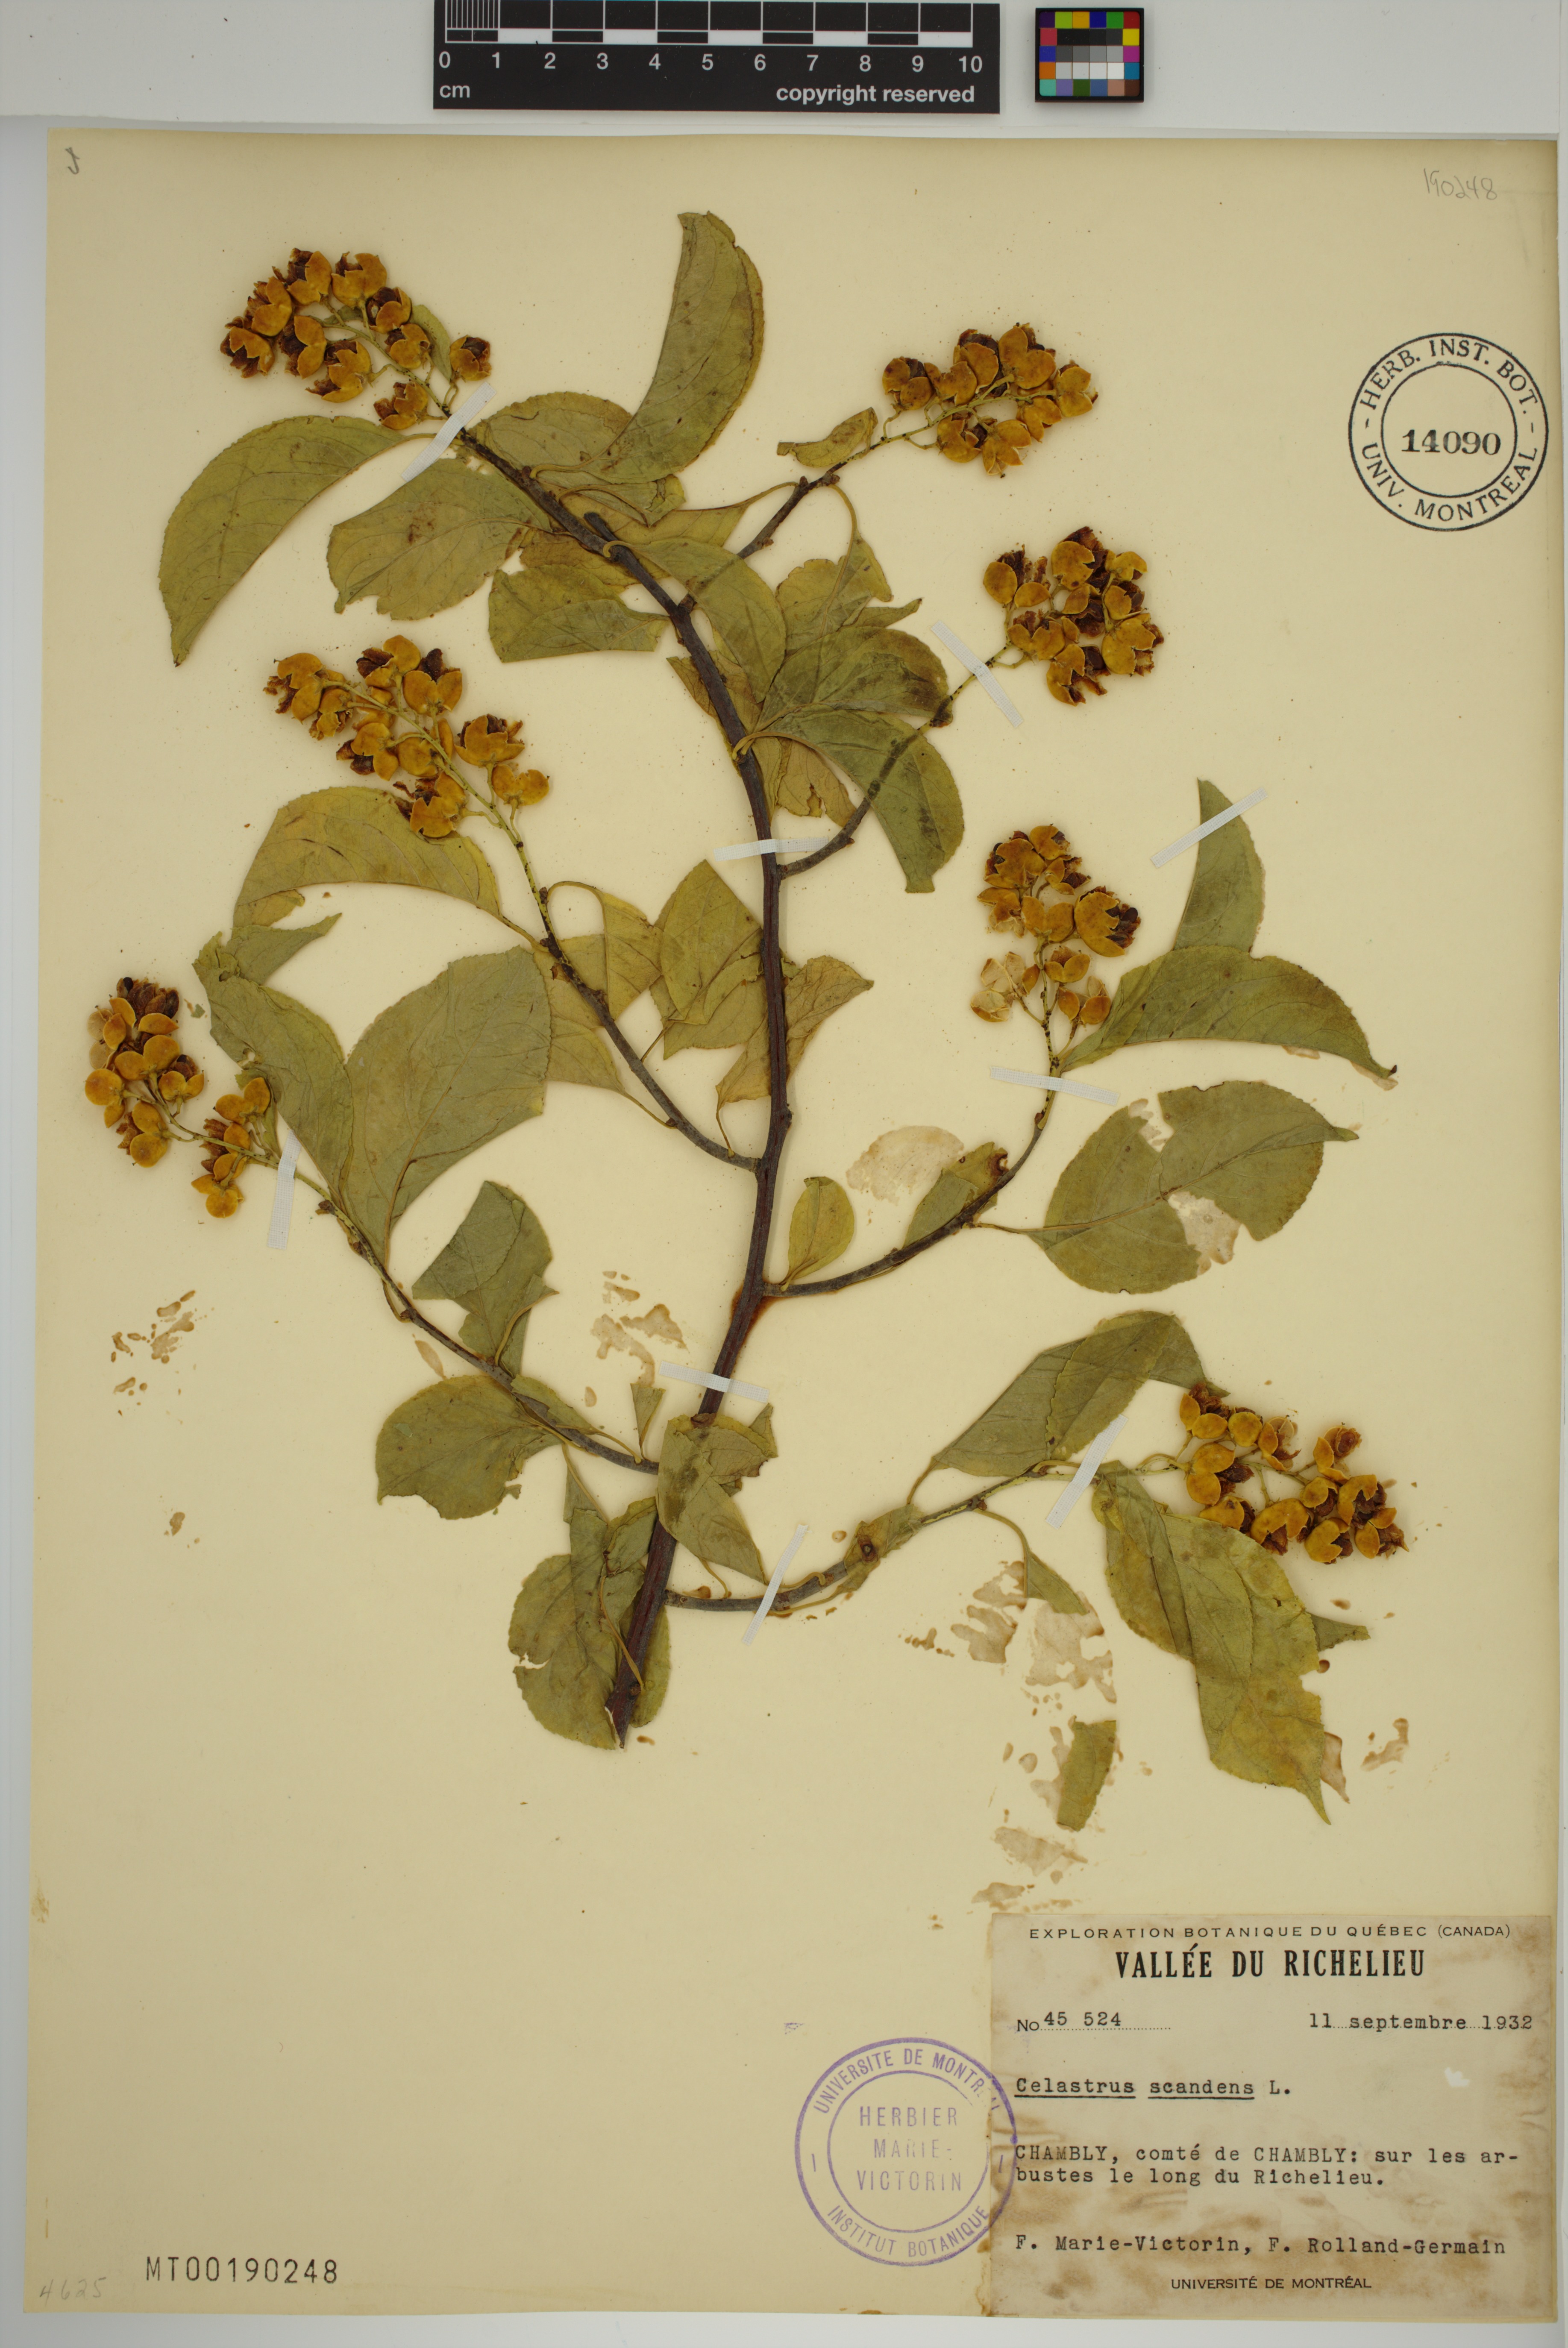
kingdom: Plantae
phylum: Tracheophyta
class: Magnoliopsida
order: Celastrales
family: Celastraceae
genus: Celastrus
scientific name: Celastrus scandens
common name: American bittersweet
